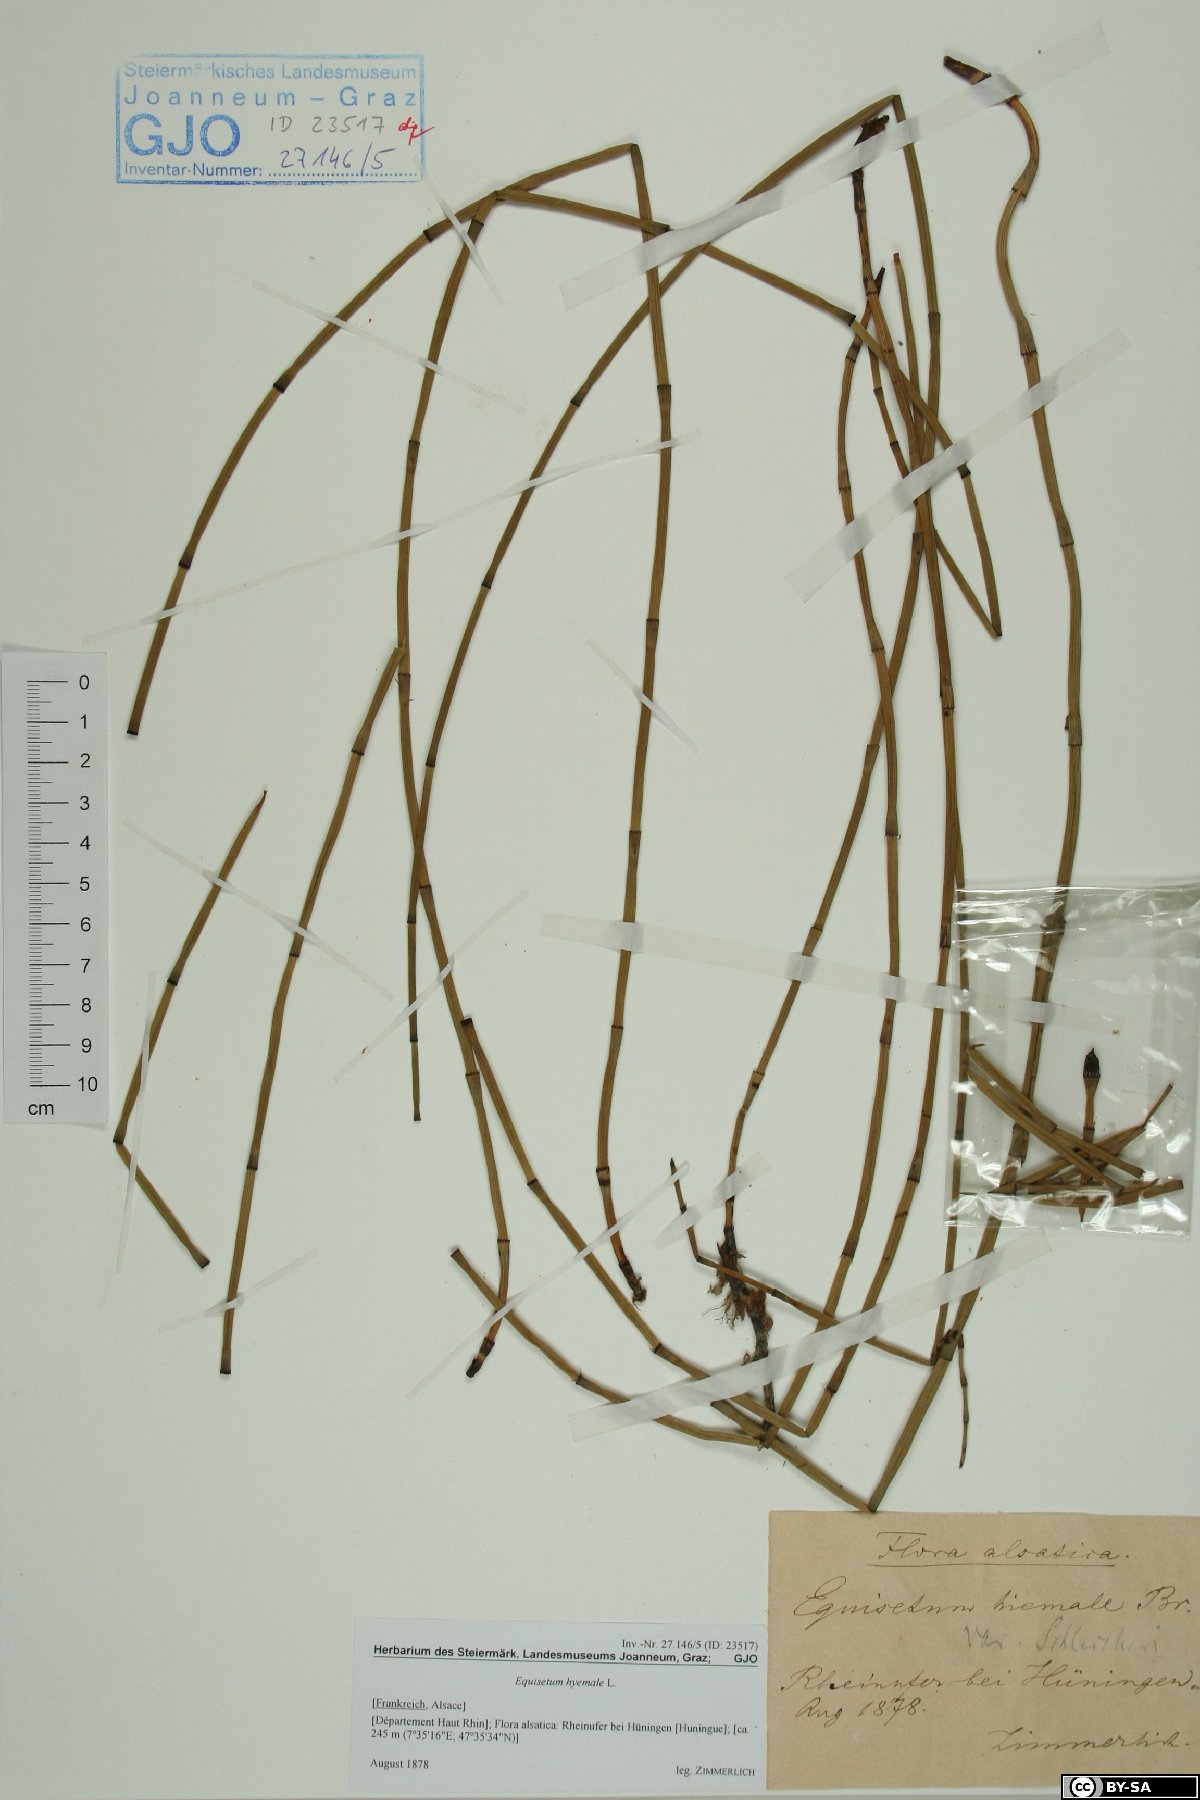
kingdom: Plantae
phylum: Tracheophyta
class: Polypodiopsida
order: Equisetales
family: Equisetaceae
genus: Equisetum
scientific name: Equisetum hyemale
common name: Rough horsetail
